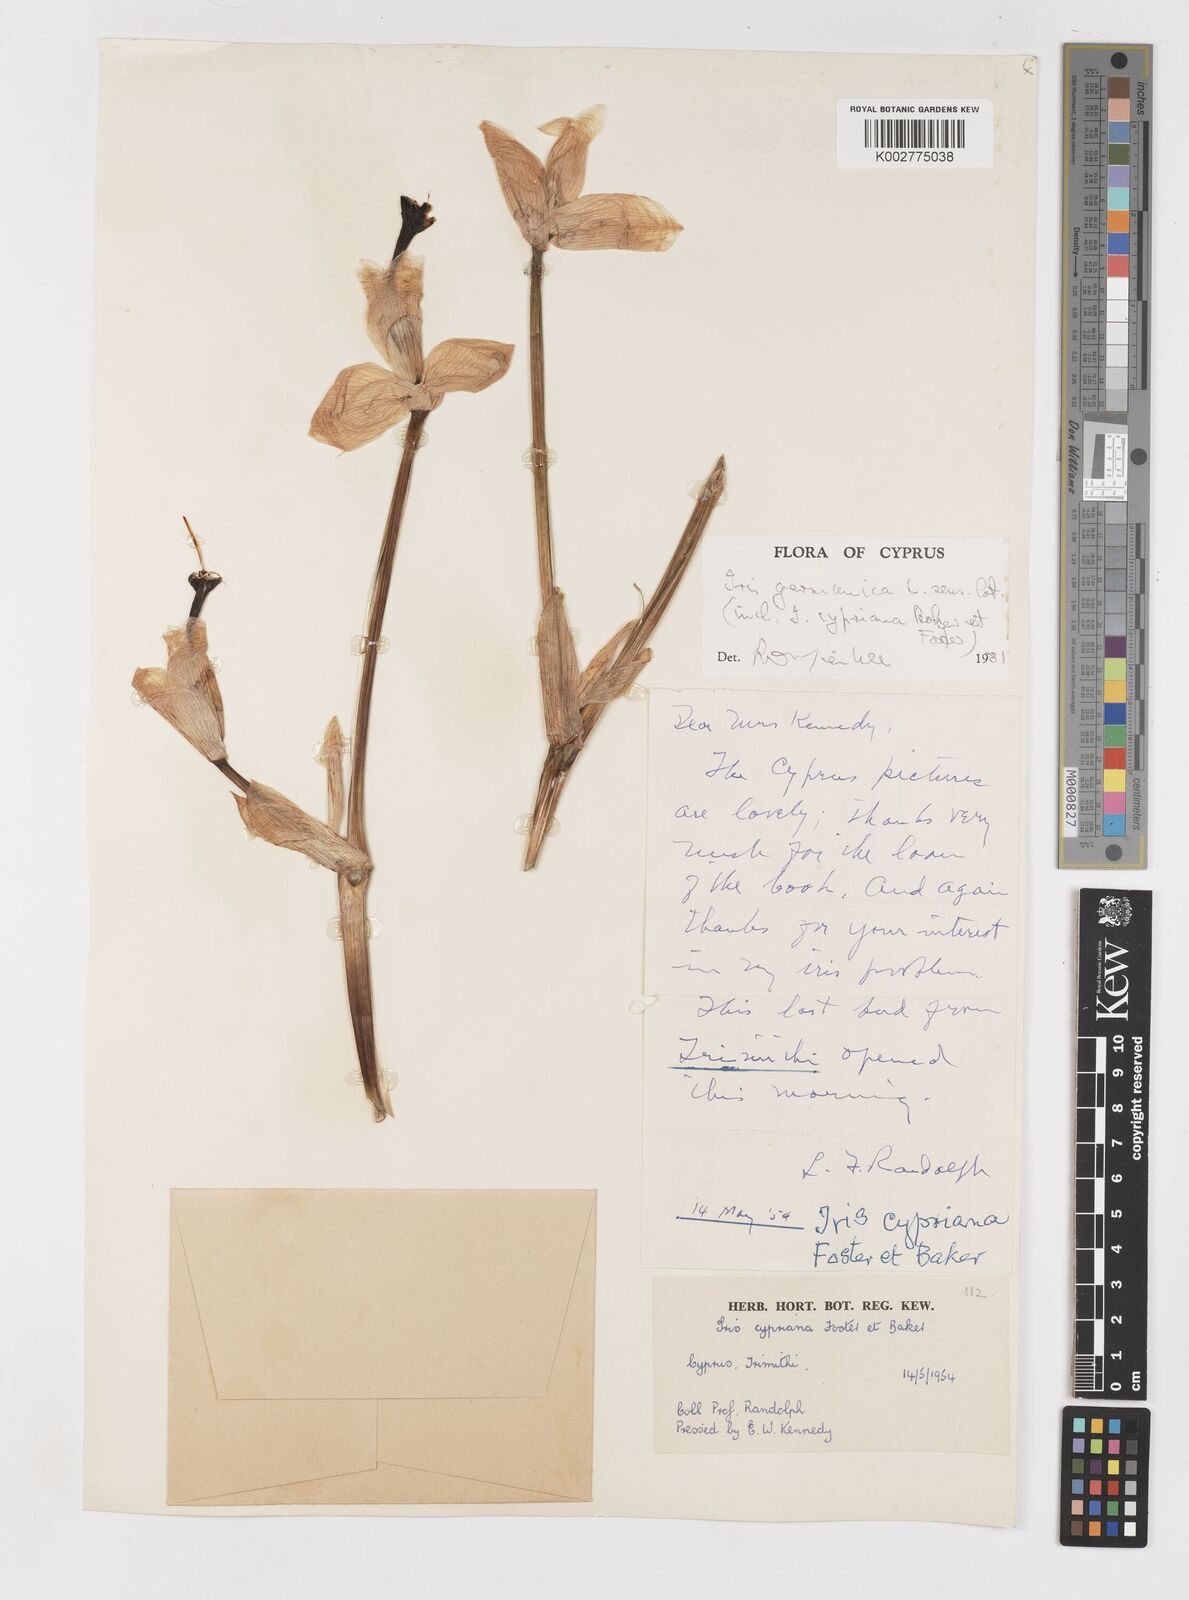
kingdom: Plantae
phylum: Tracheophyta
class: Liliopsida
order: Asparagales
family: Iridaceae
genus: Iris
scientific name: Iris germanica
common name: German iris
